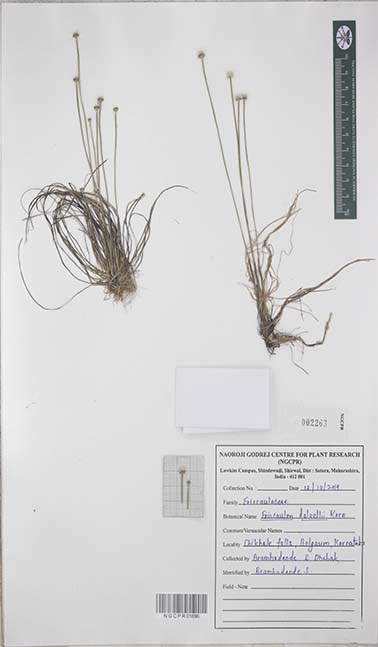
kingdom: Plantae
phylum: Tracheophyta
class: Liliopsida
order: Poales
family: Eriocaulaceae
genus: Eriocaulon
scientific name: Eriocaulon dalzellii
